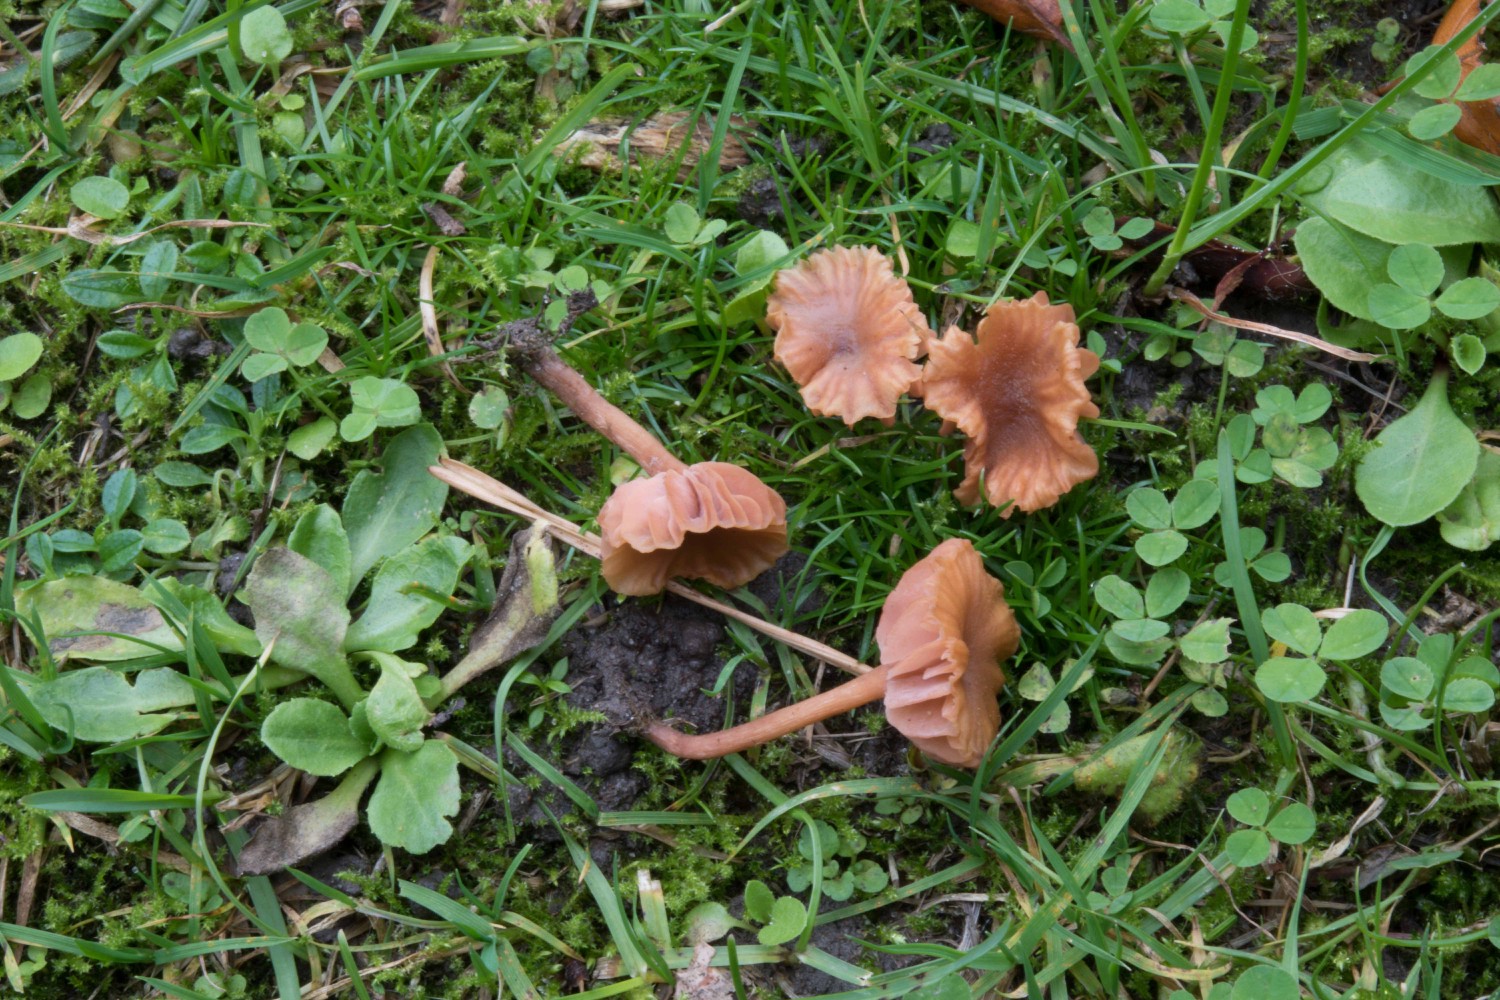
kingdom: Fungi
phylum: Basidiomycota
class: Agaricomycetes
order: Agaricales
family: Hydnangiaceae
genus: Laccaria
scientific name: Laccaria tortilis
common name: krybende ametysthat
